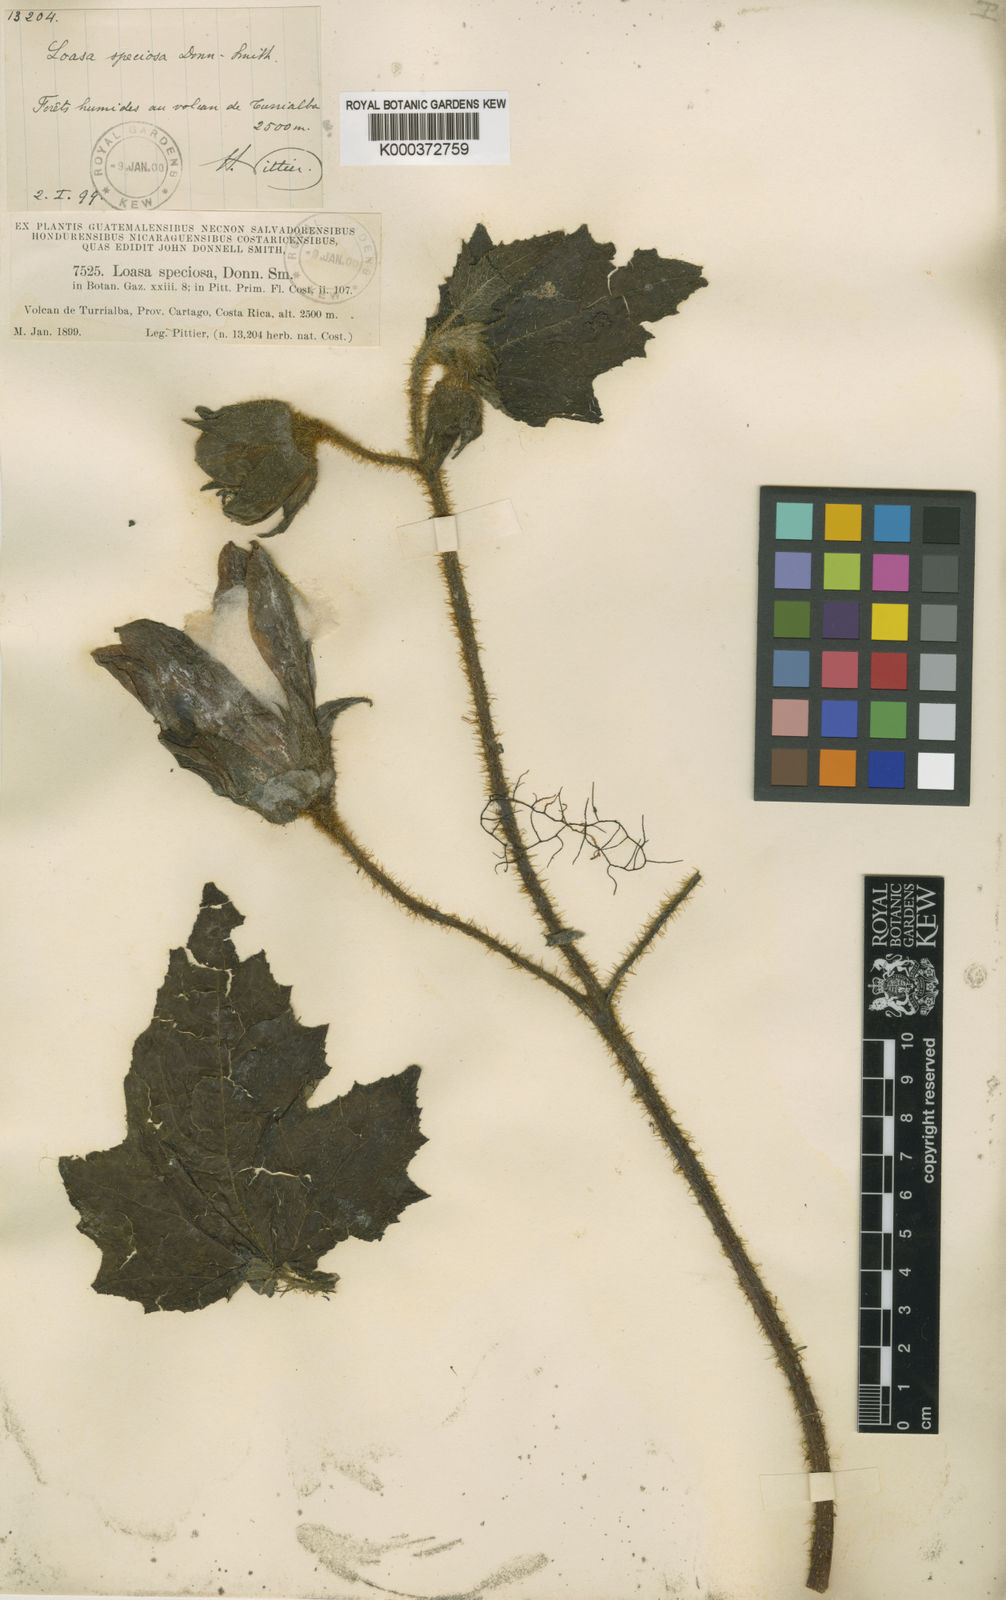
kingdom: Plantae
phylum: Tracheophyta
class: Magnoliopsida
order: Cornales
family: Loasaceae
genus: Nasa
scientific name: Nasa speciosa
